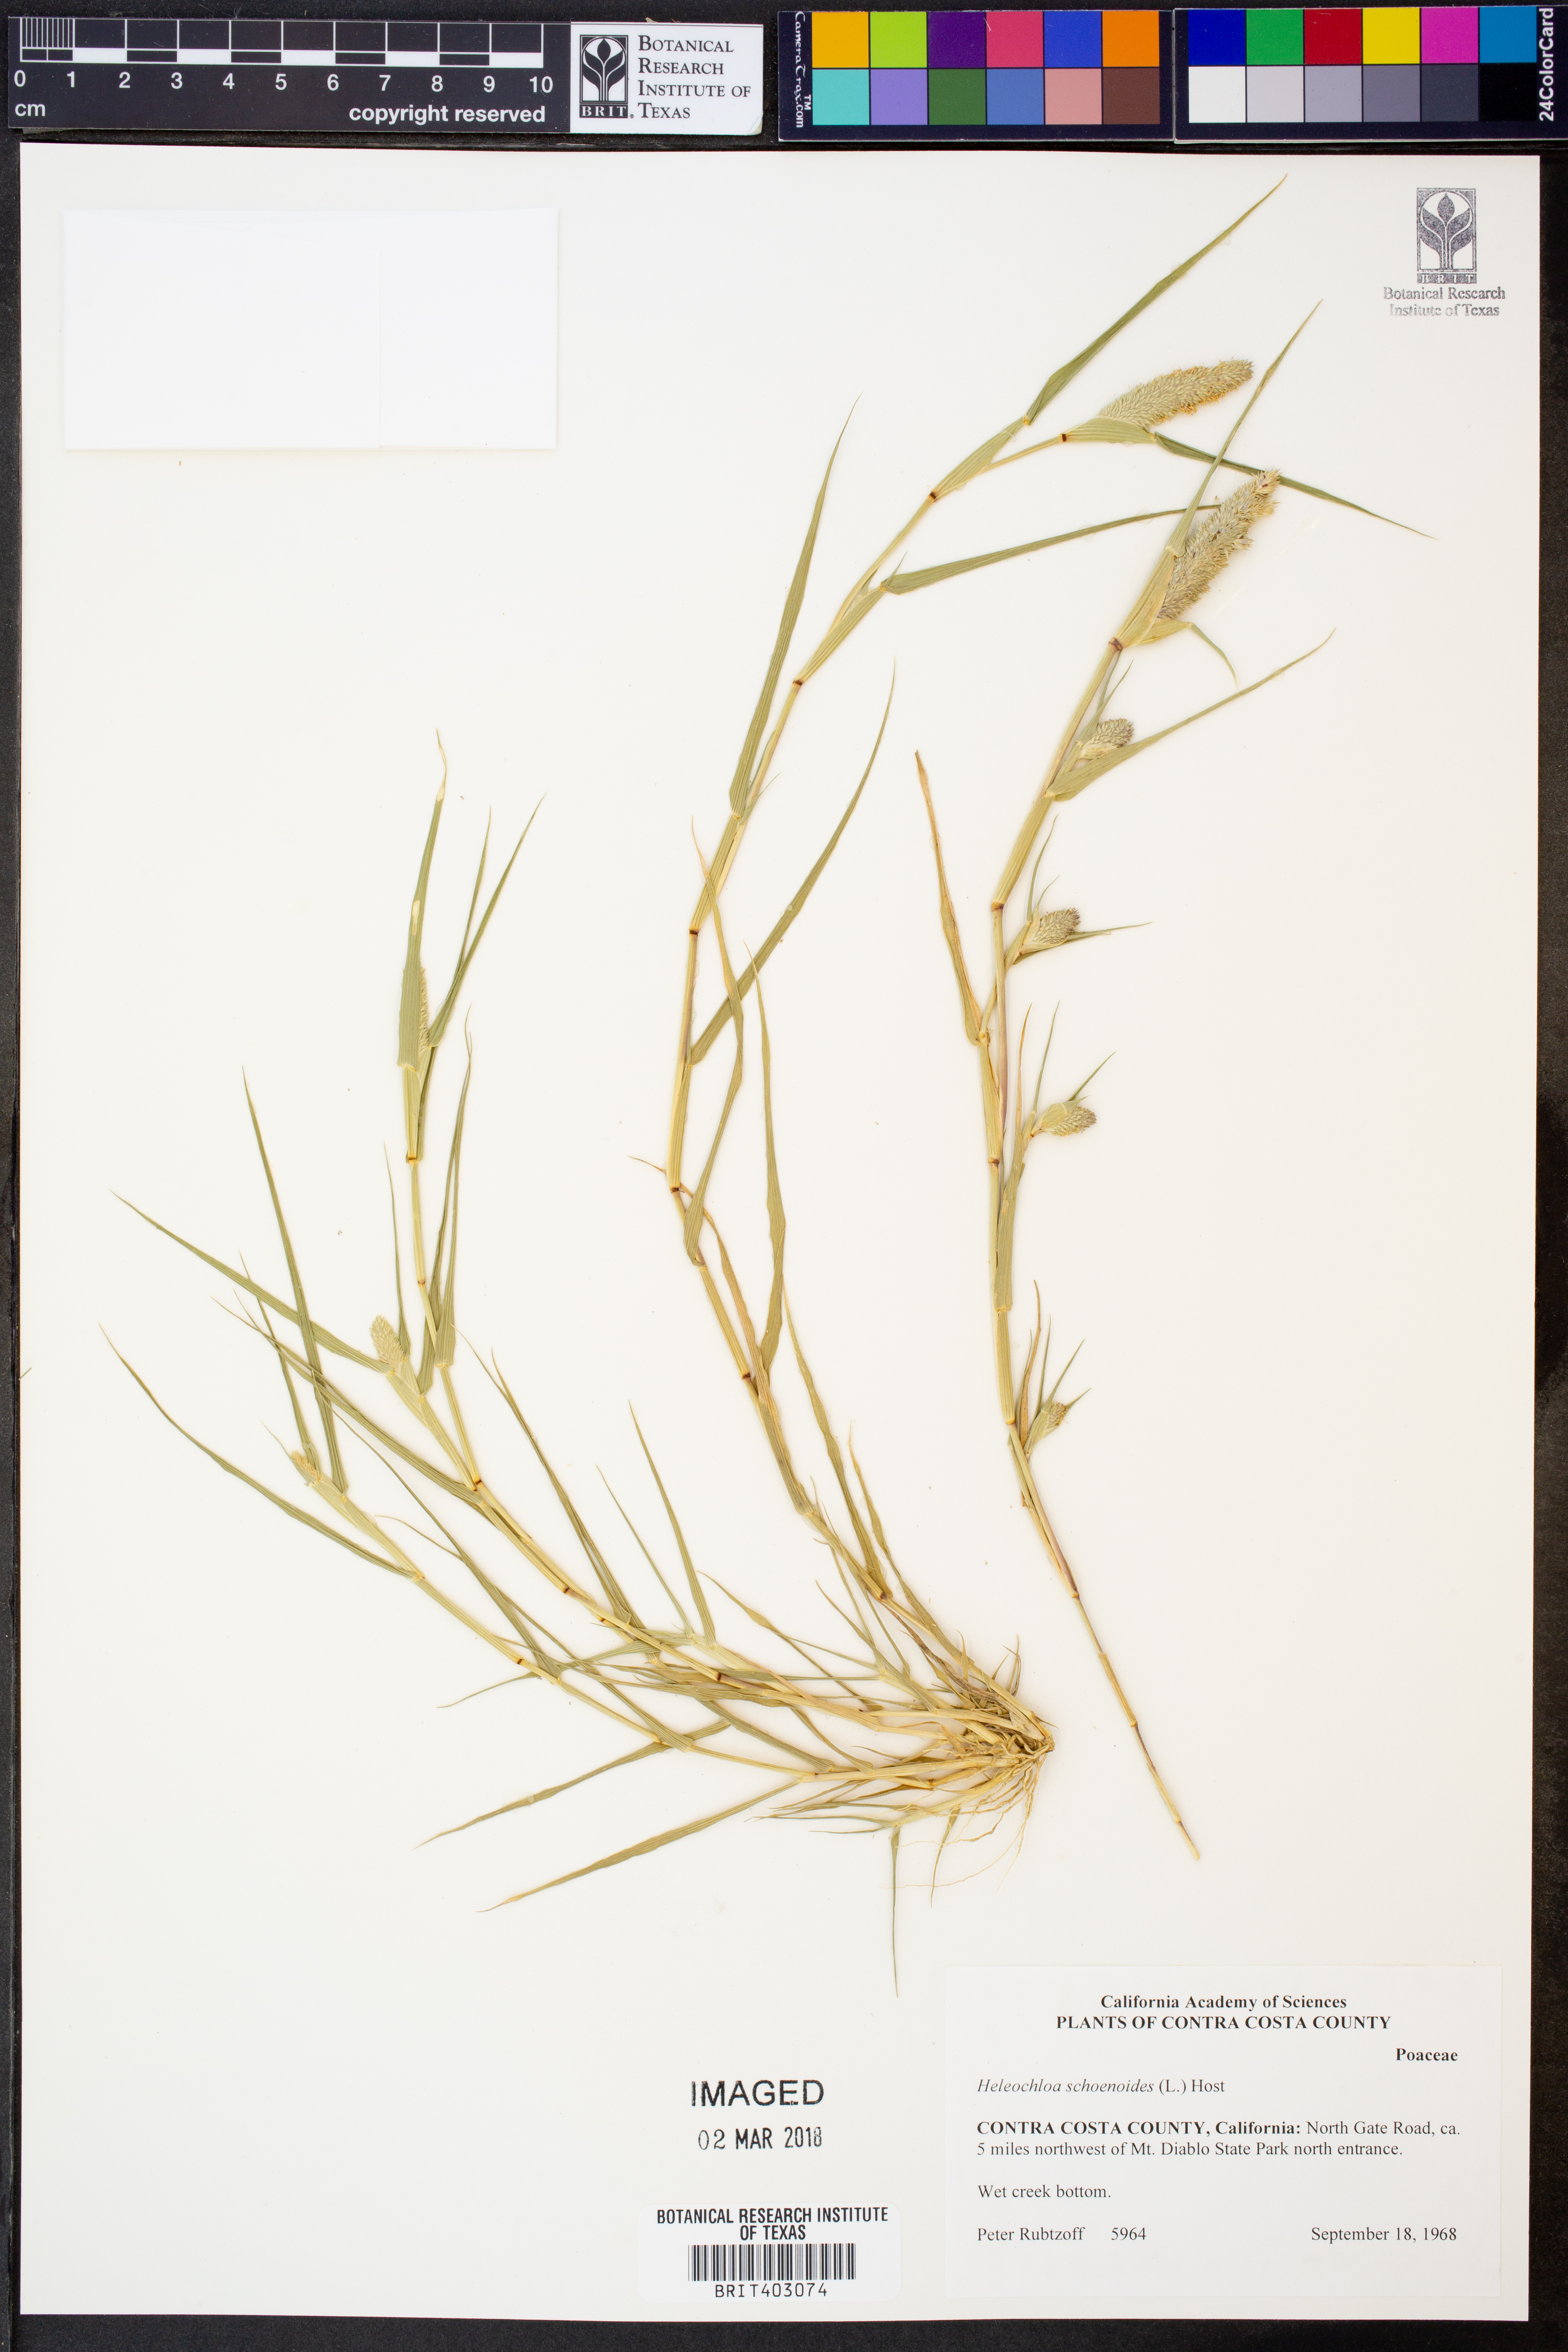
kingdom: Plantae
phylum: Tracheophyta
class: Liliopsida
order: Poales
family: Poaceae
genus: Sporobolus
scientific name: Sporobolus schoenoides
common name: Rush-like timothy
